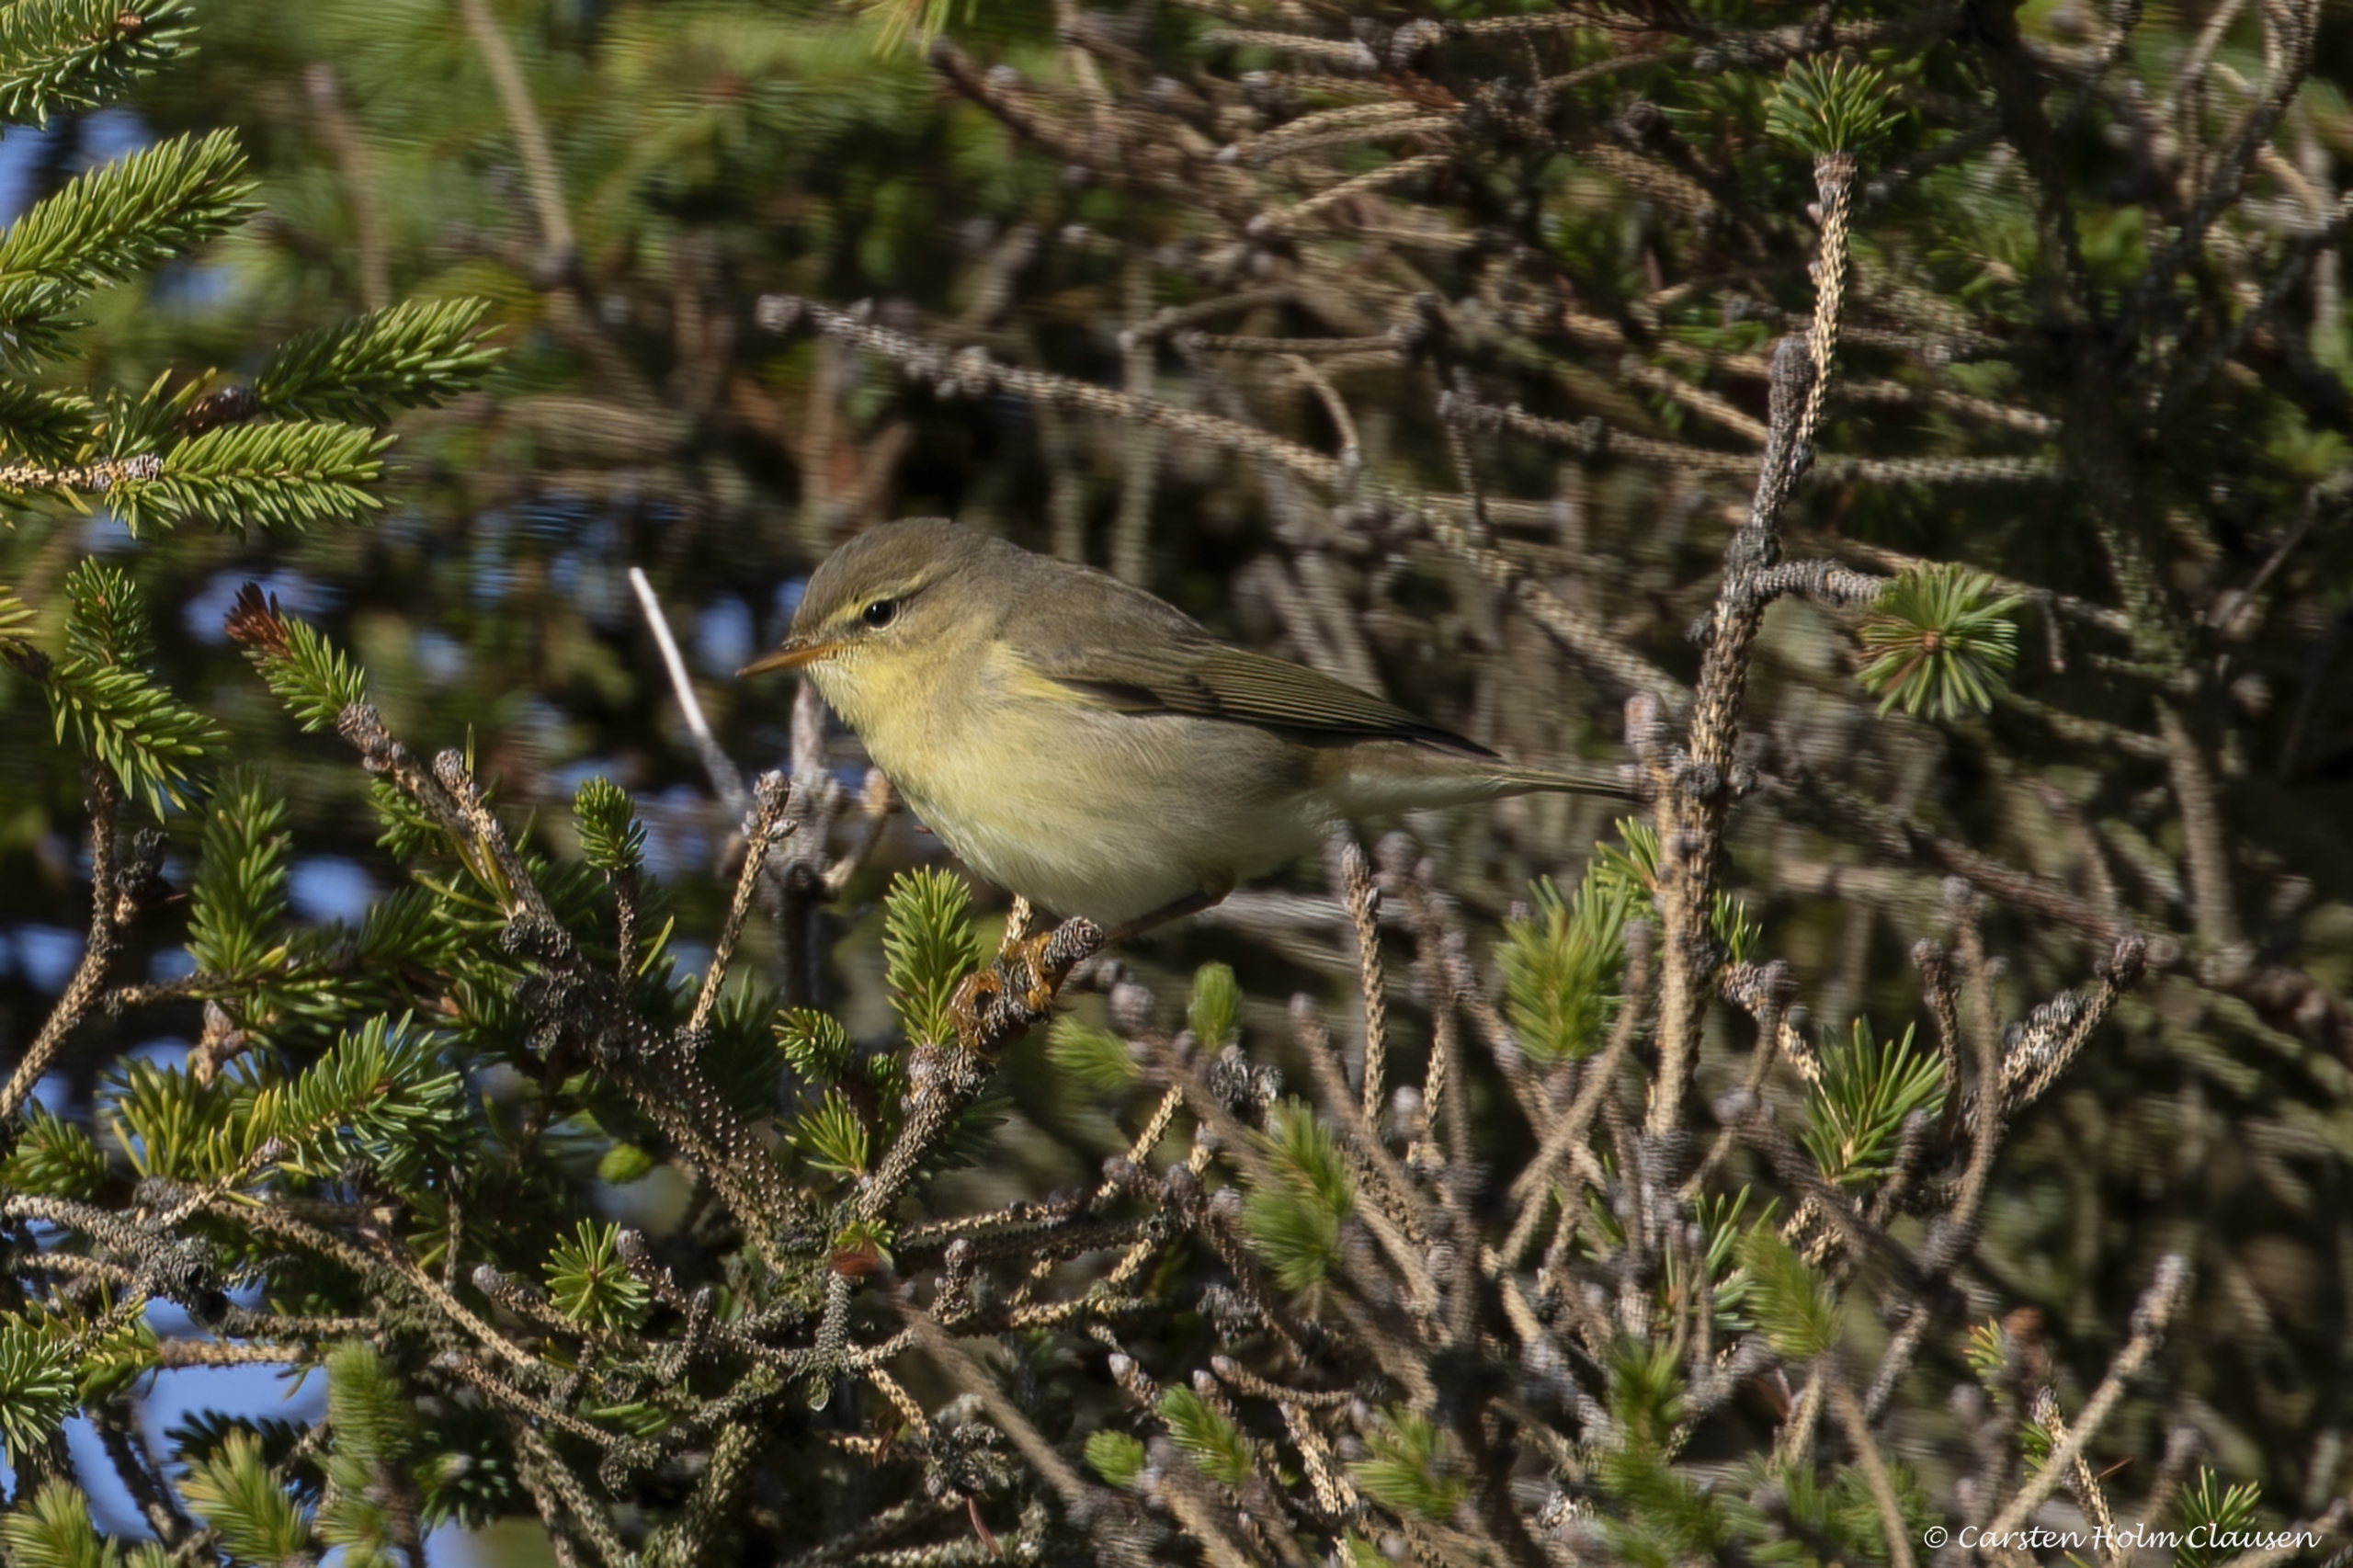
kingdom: Animalia
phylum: Chordata
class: Aves
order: Passeriformes
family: Phylloscopidae
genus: Phylloscopus
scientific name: Phylloscopus trochilus
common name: Løvsanger
